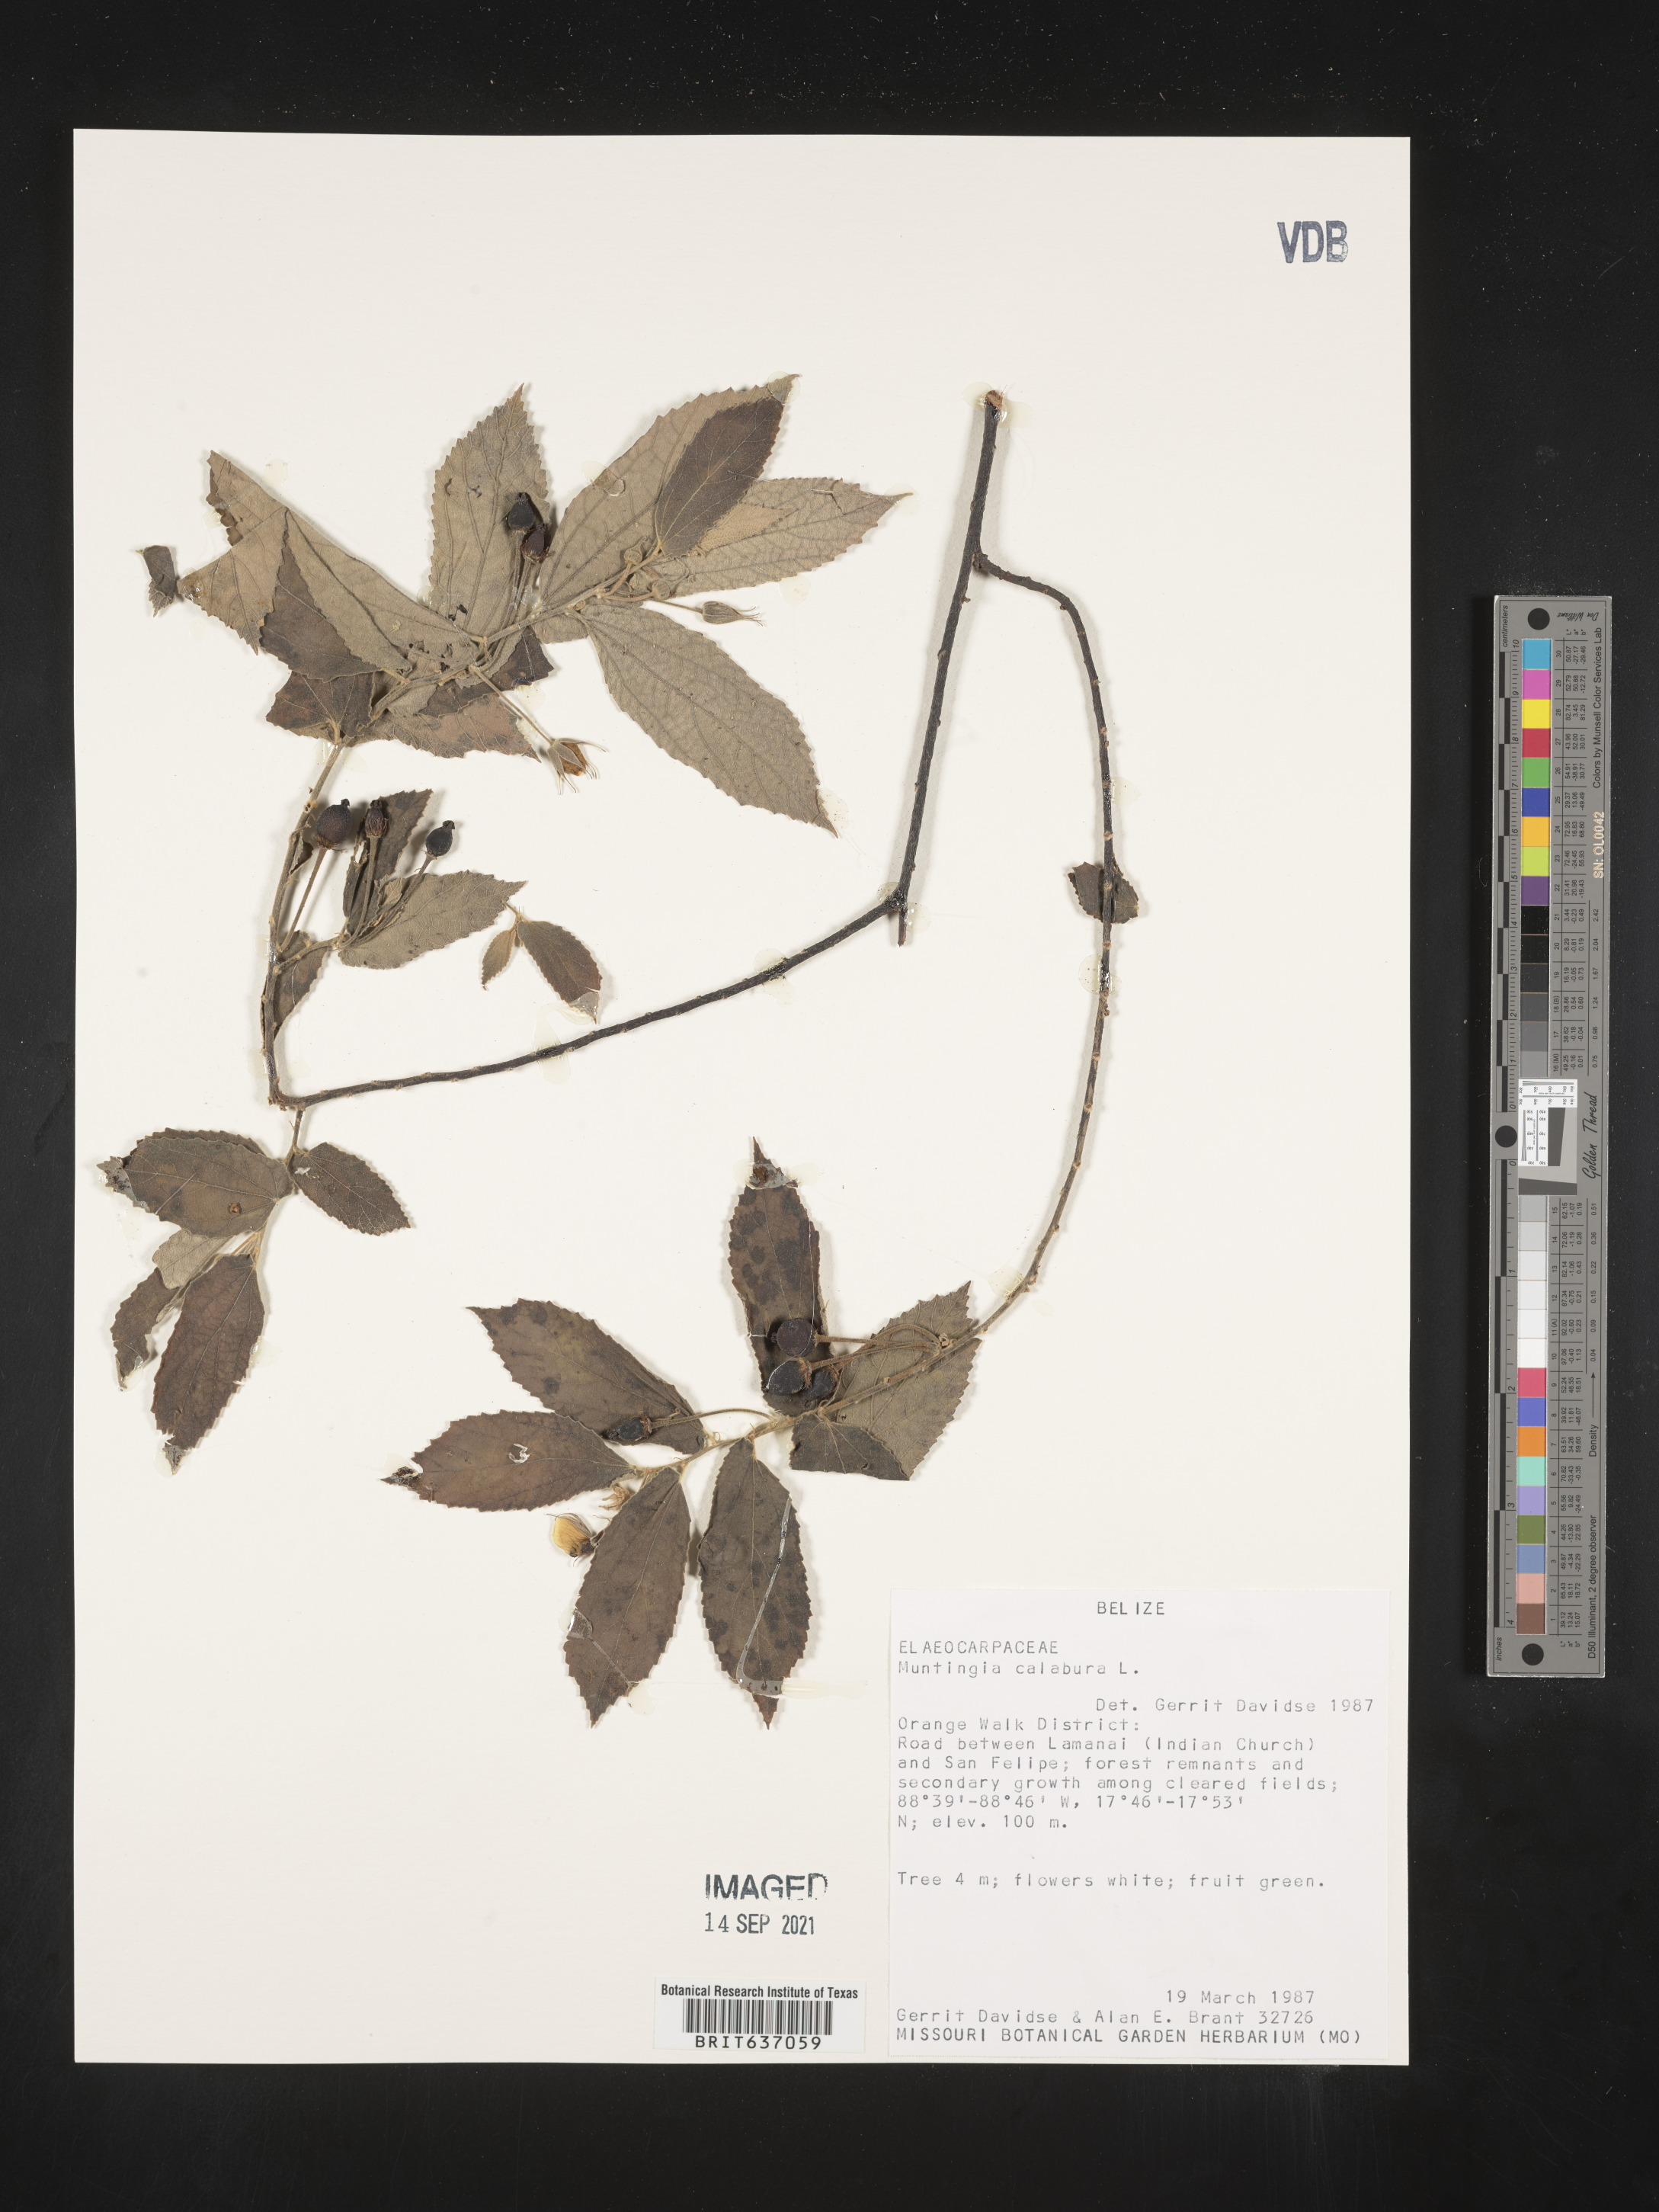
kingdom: Plantae
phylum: Tracheophyta
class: Magnoliopsida
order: Malvales
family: Muntingiaceae
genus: Muntingia
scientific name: Muntingia
